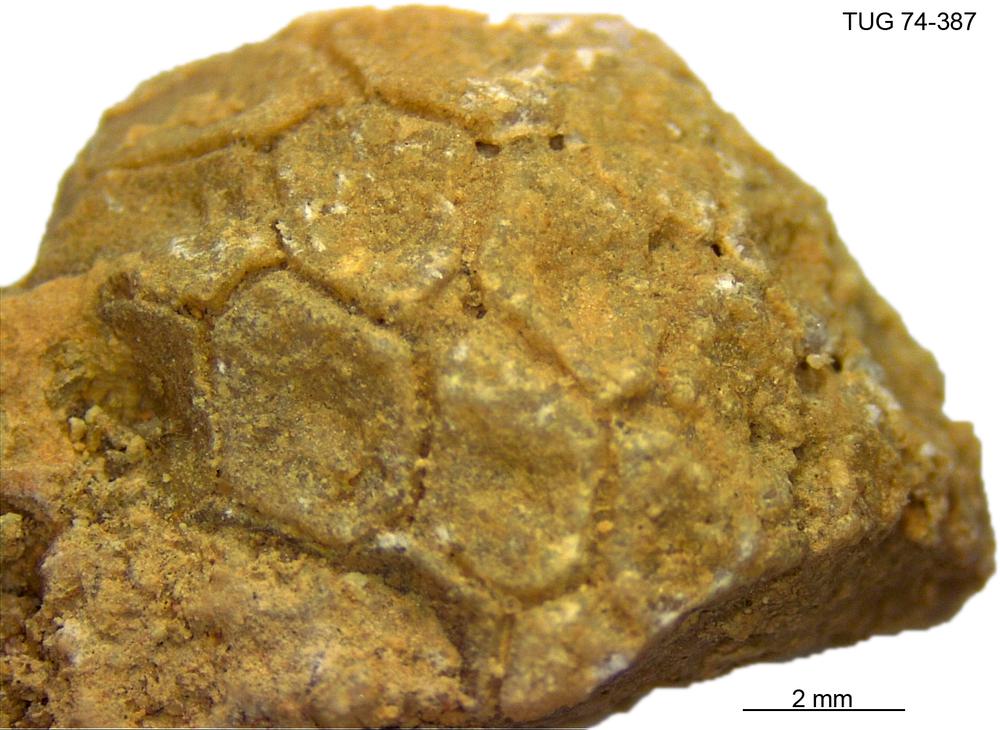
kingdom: Animalia
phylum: Echinodermata
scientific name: Echinodermata
